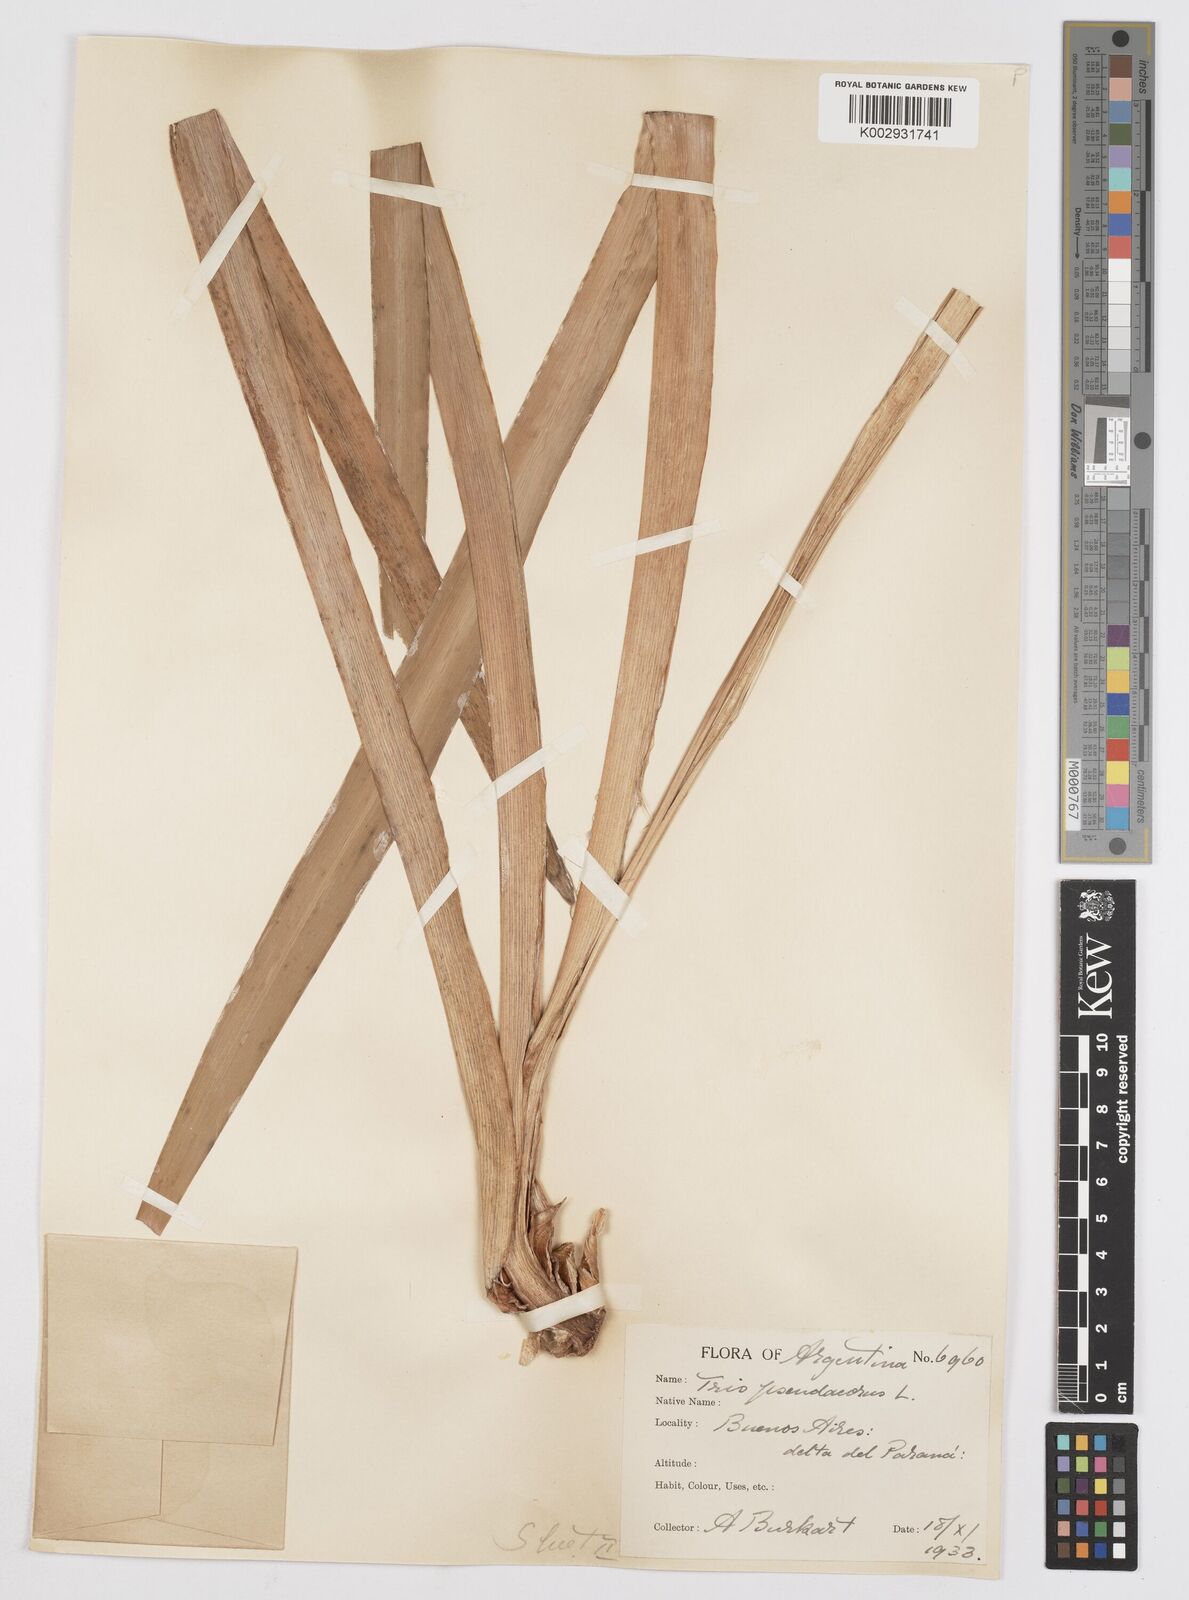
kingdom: Plantae
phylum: Tracheophyta
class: Liliopsida
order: Asparagales
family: Iridaceae
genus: Iris
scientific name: Iris pseudacorus
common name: Yellow flag
